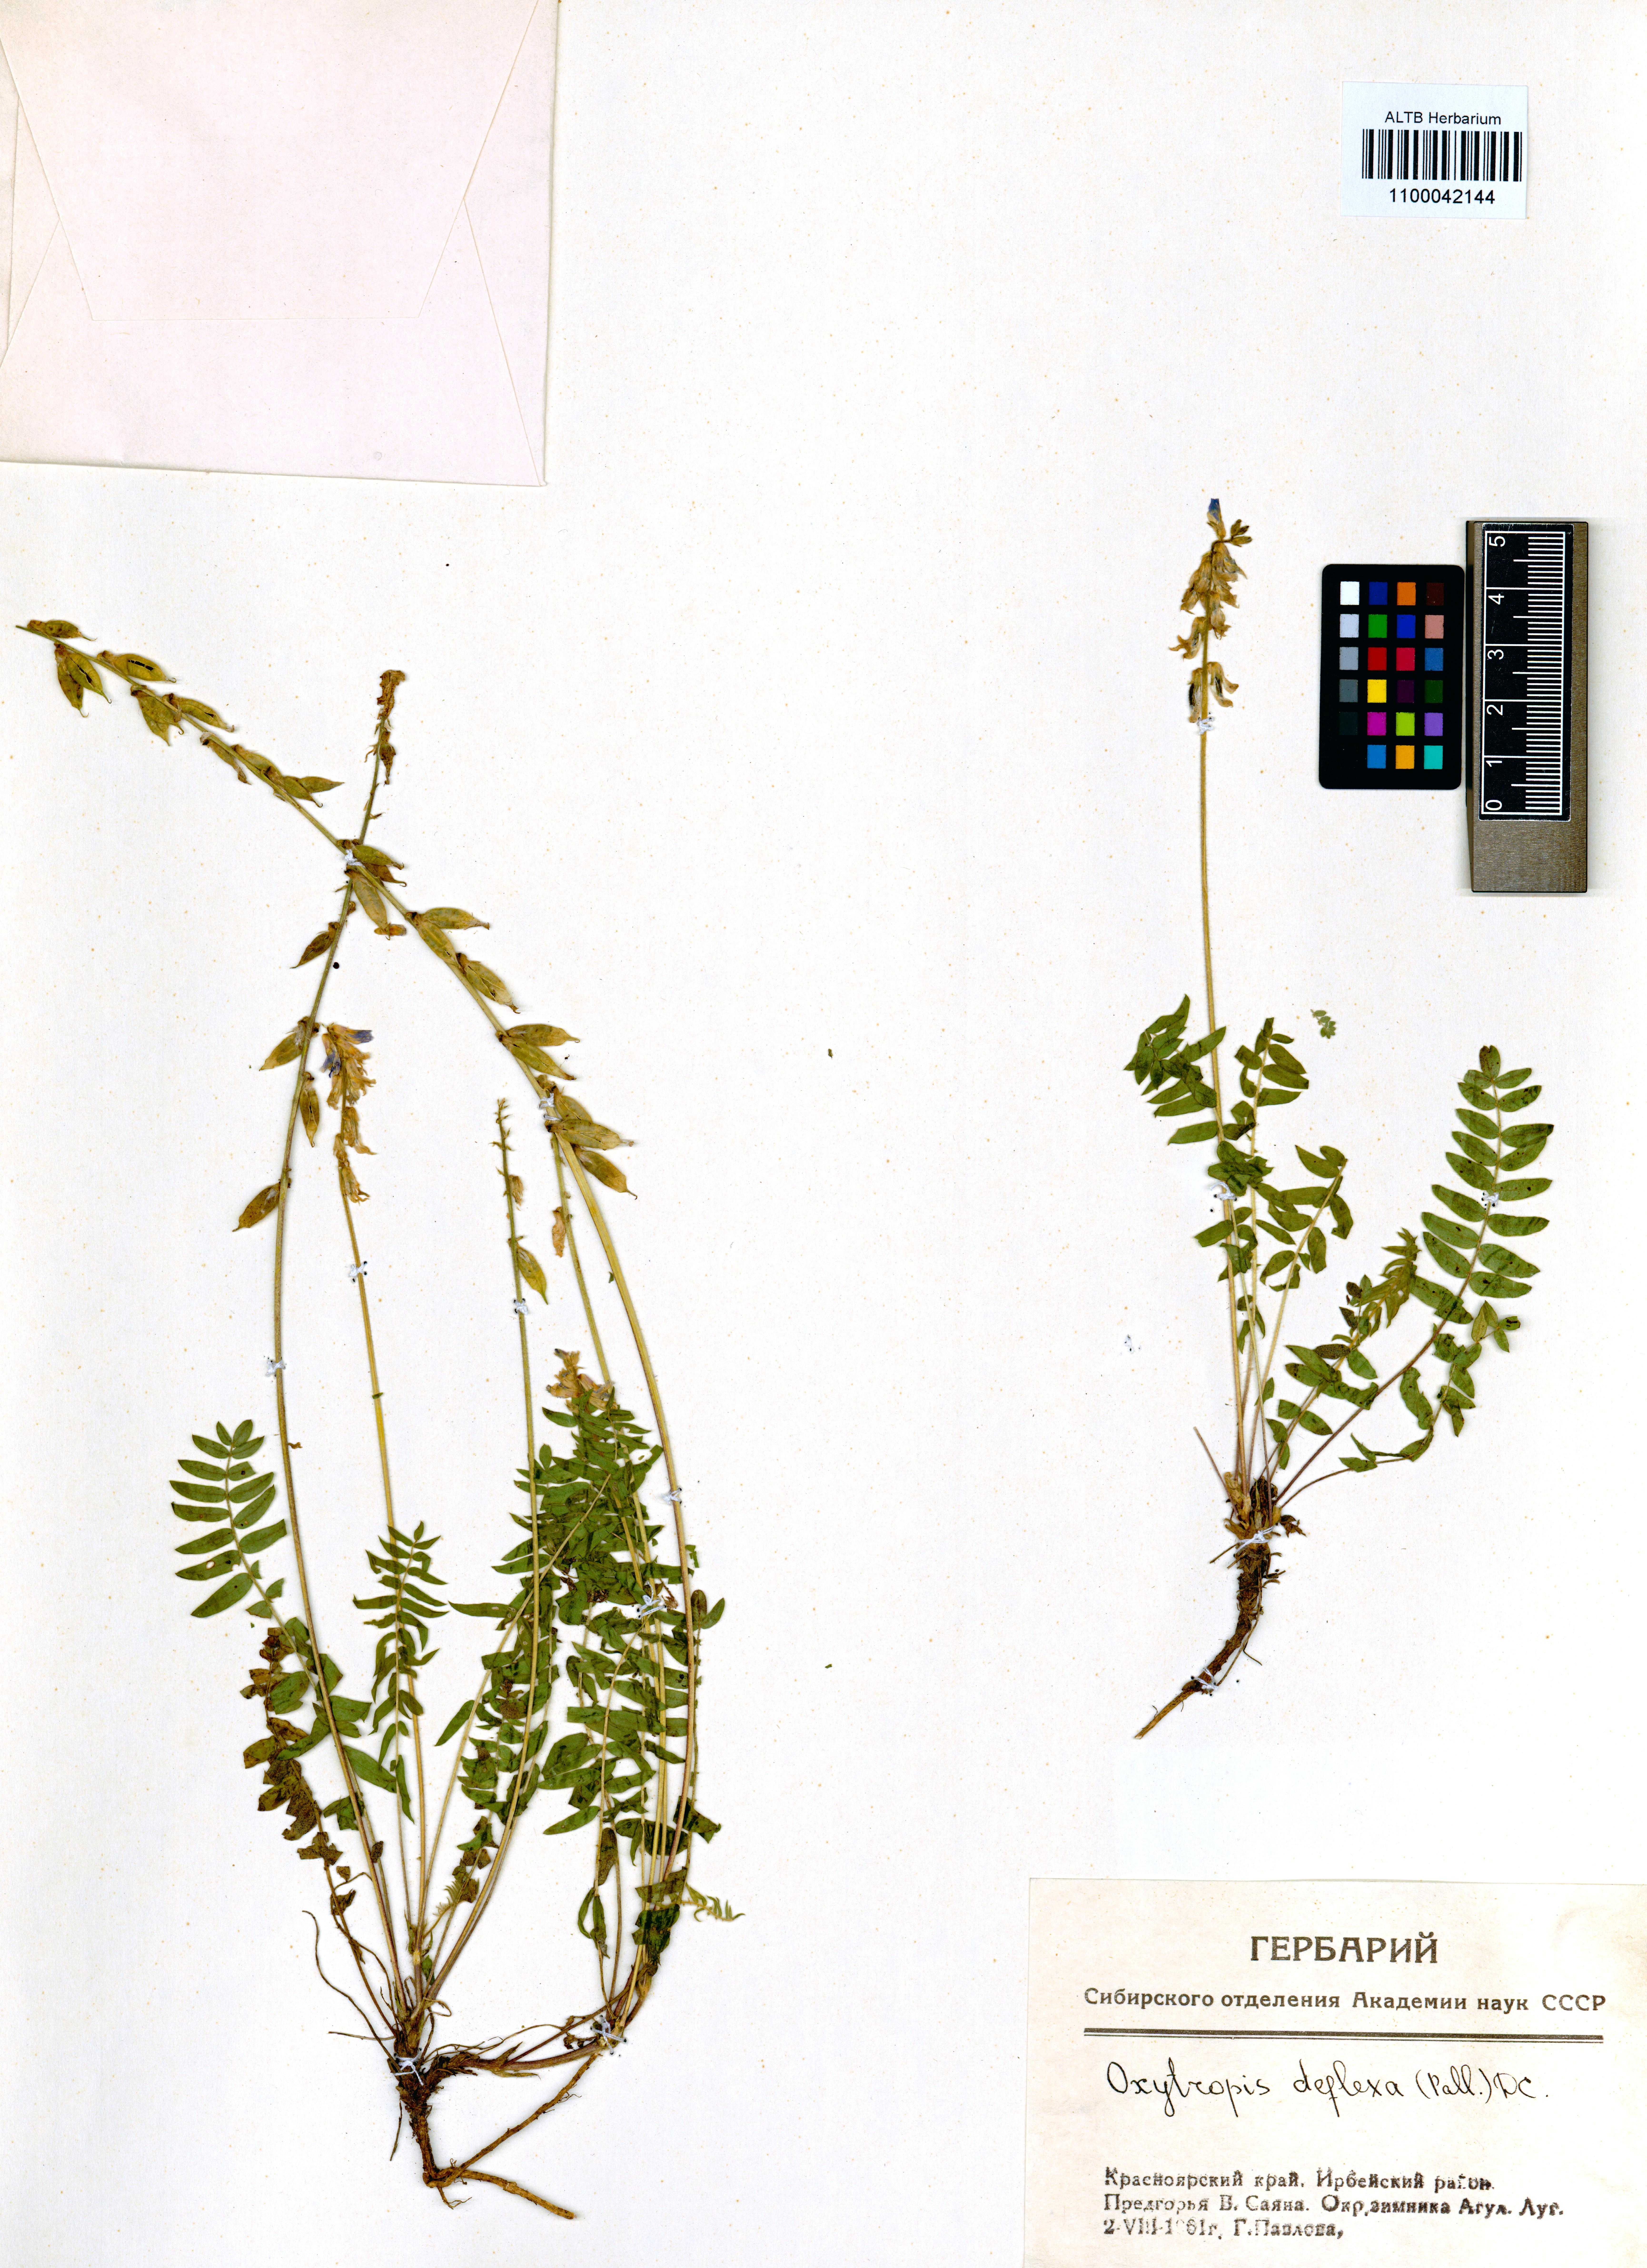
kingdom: Plantae
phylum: Tracheophyta
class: Magnoliopsida
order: Fabales
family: Fabaceae
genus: Oxytropis
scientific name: Oxytropis deflexa
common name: Stemmed oxytrope
